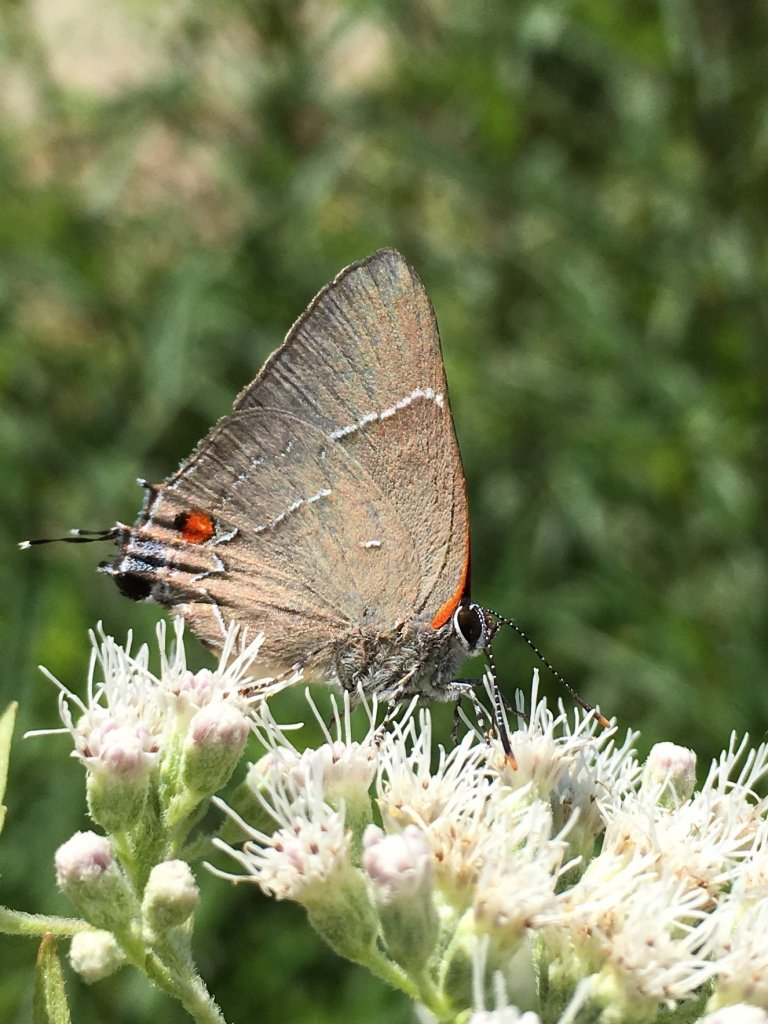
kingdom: Animalia
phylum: Arthropoda
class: Insecta
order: Lepidoptera
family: Lycaenidae
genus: Parrhasius
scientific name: Parrhasius m-album
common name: White-m Hairstreak
